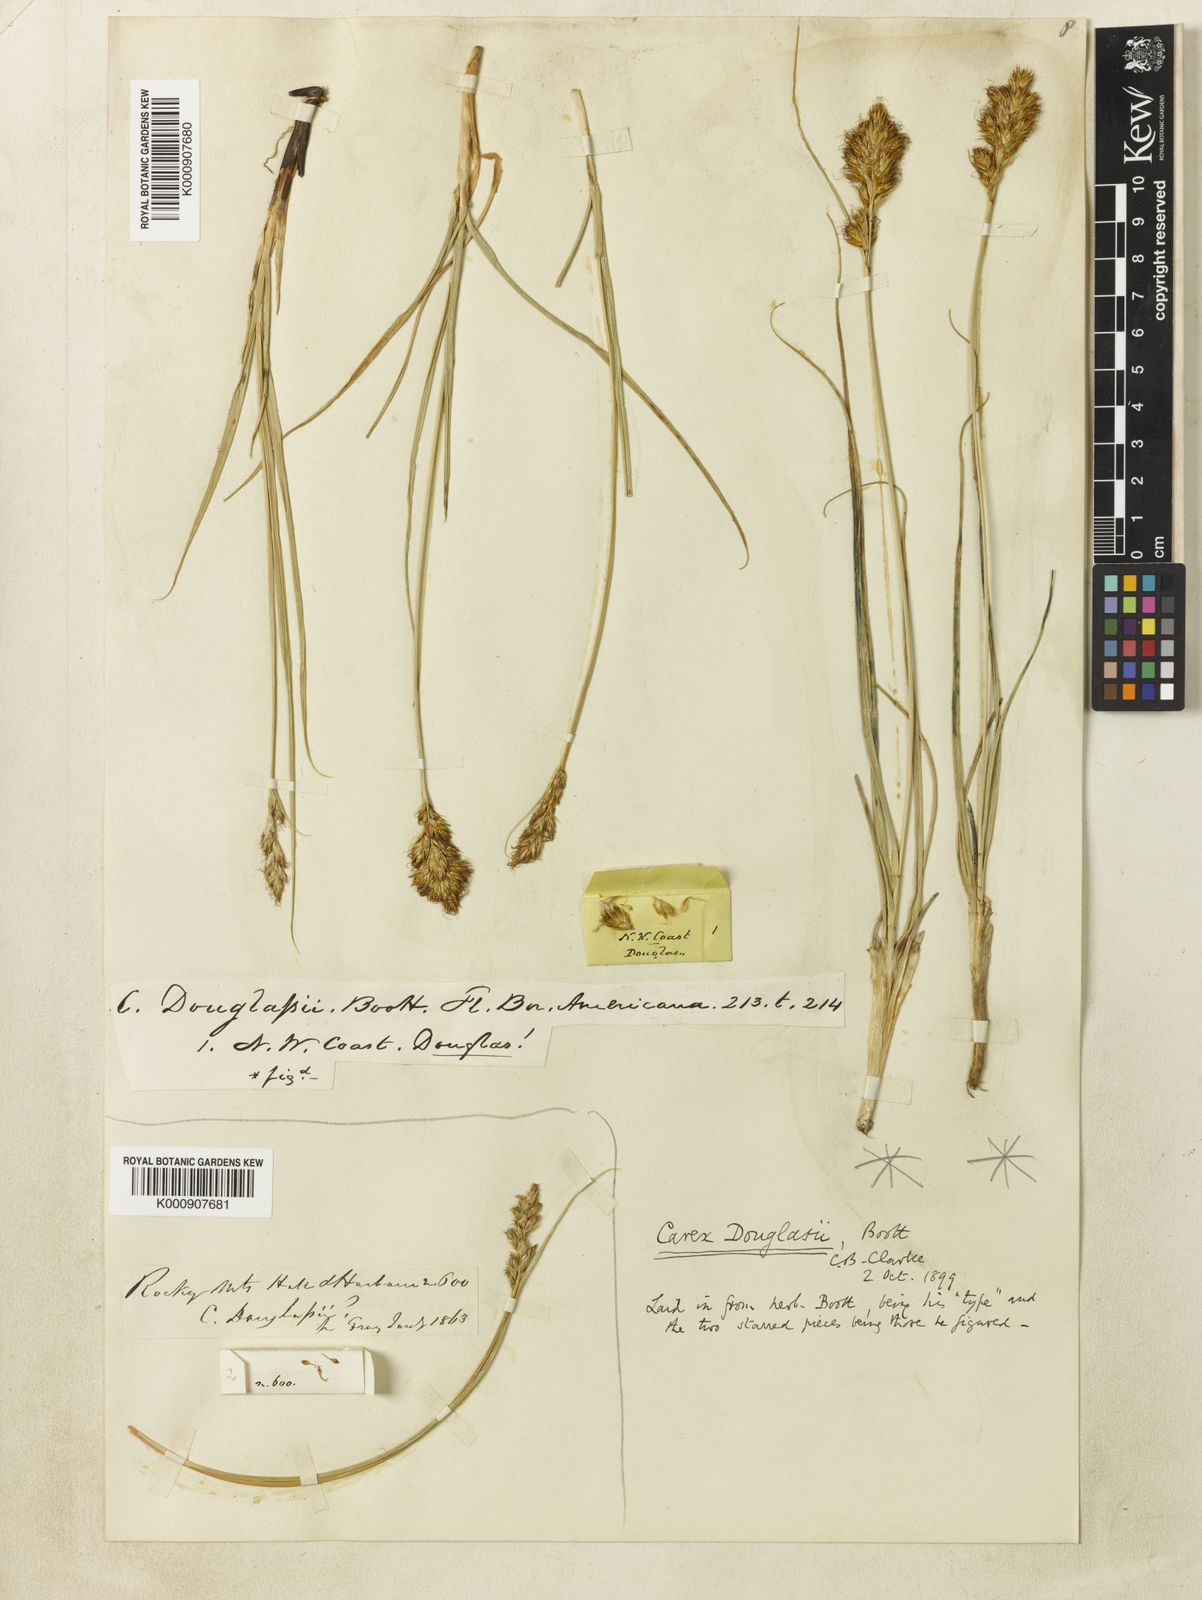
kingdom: Plantae
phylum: Tracheophyta
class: Liliopsida
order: Poales
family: Cyperaceae
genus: Carex
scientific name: Carex douglasii
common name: Douglas' sedge
